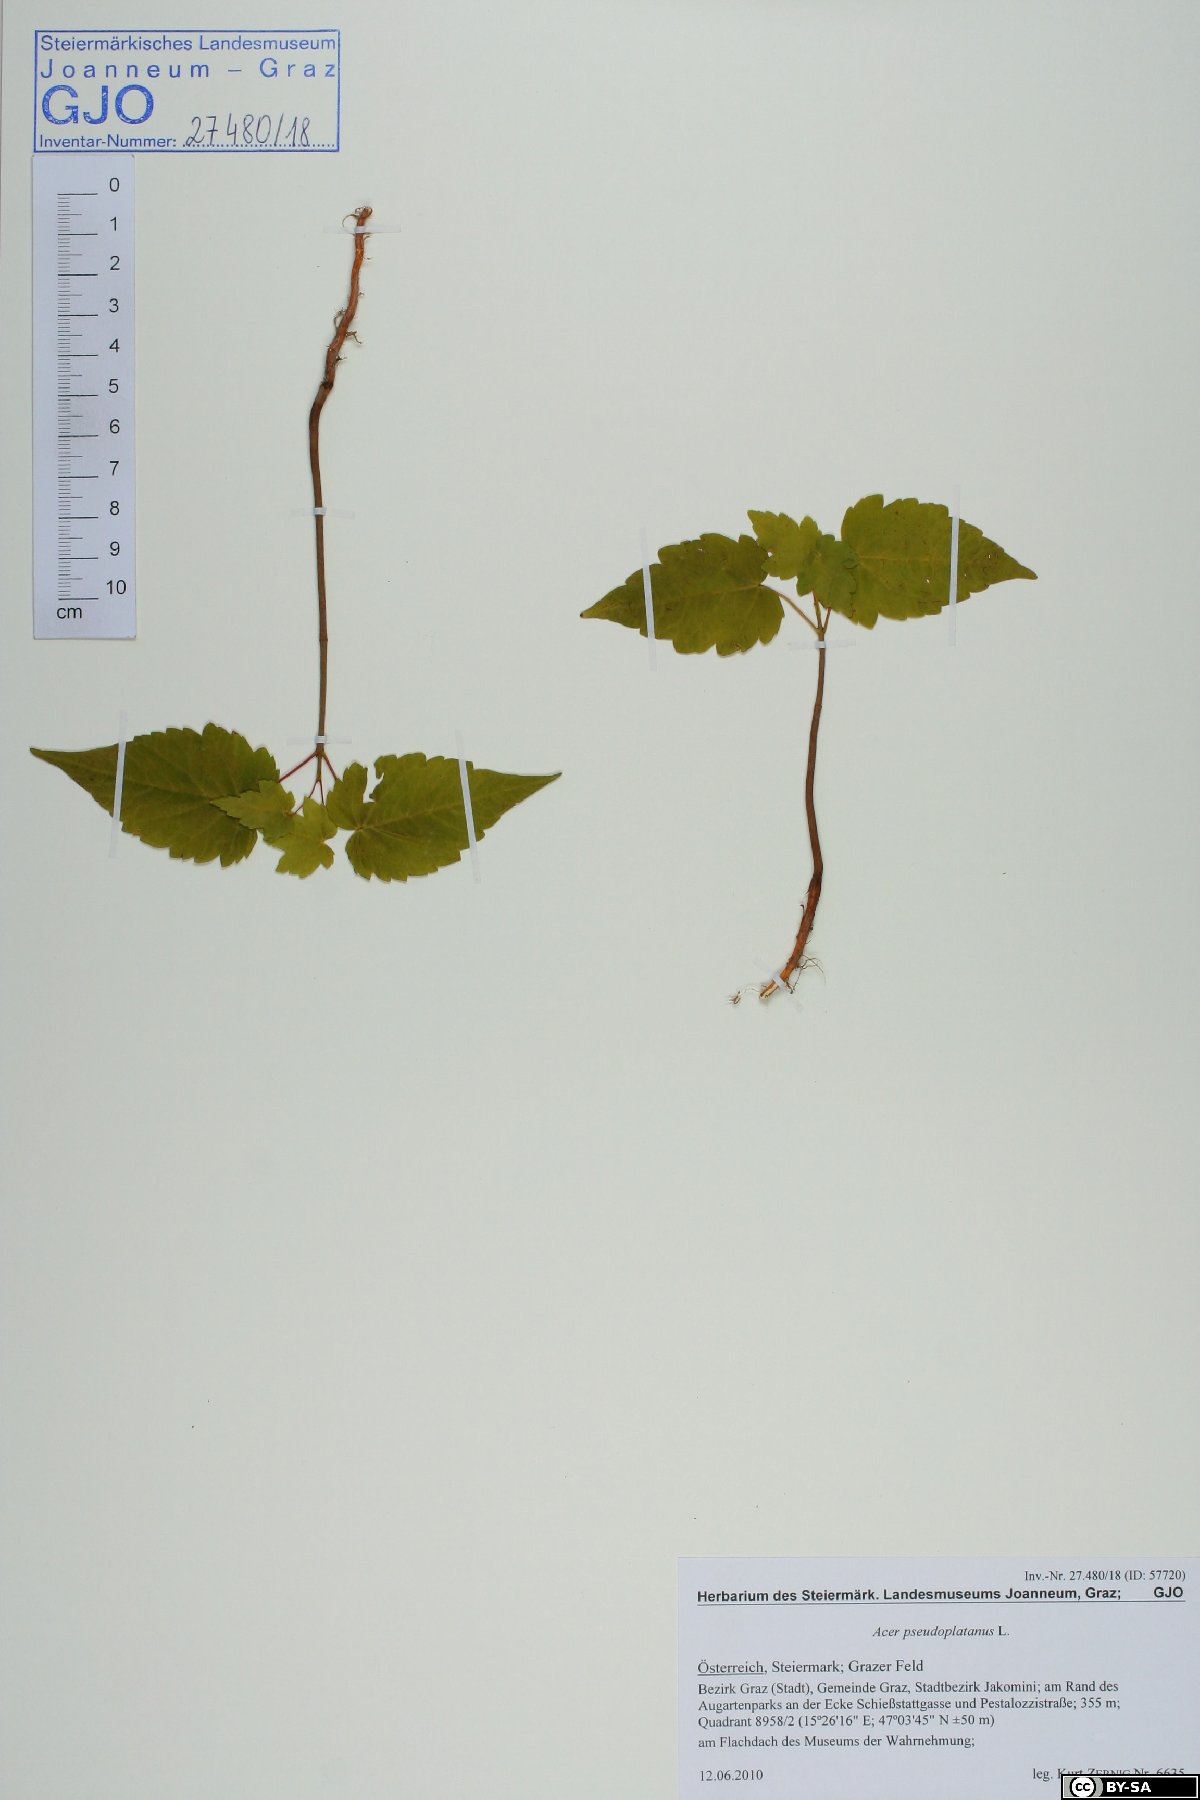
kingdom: Plantae
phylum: Tracheophyta
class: Magnoliopsida
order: Sapindales
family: Sapindaceae
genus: Acer
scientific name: Acer pseudoplatanus
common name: Sycamore
